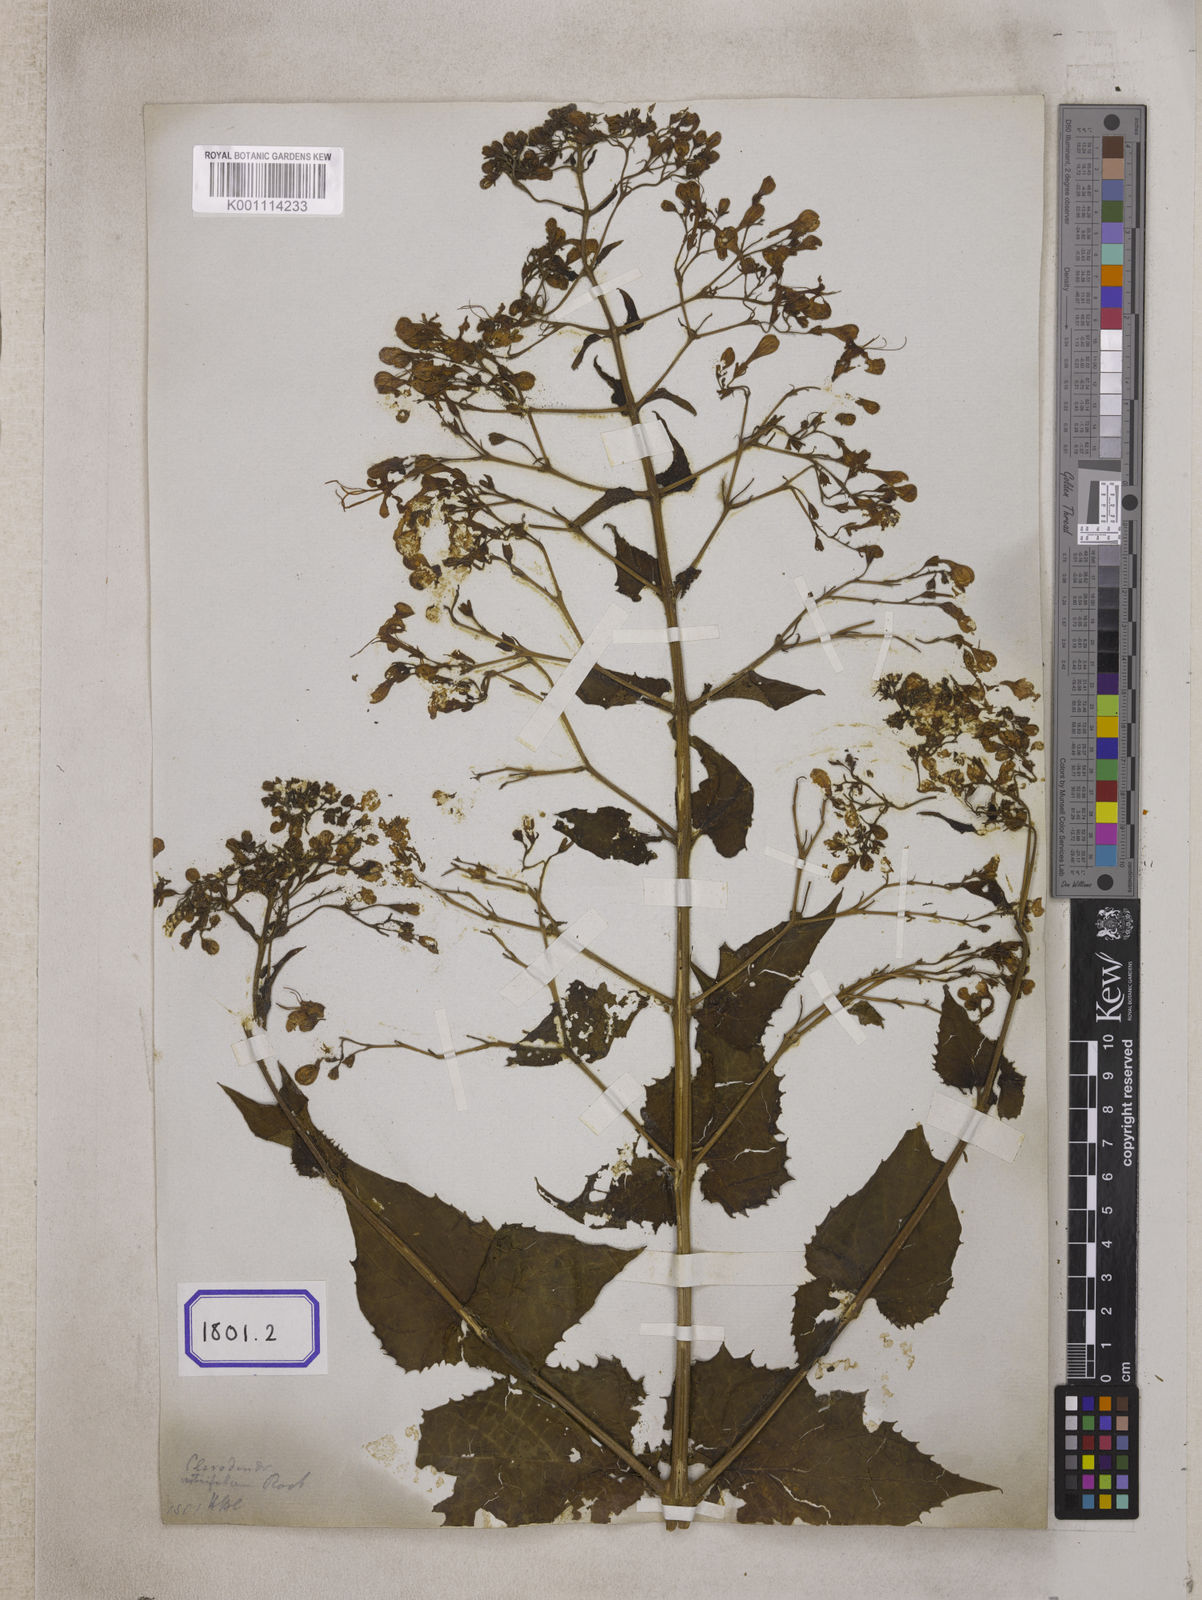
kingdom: Plantae
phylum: Tracheophyta
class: Magnoliopsida
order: Lamiales
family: Lamiaceae
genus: Clerodendrum
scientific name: Clerodendrum
